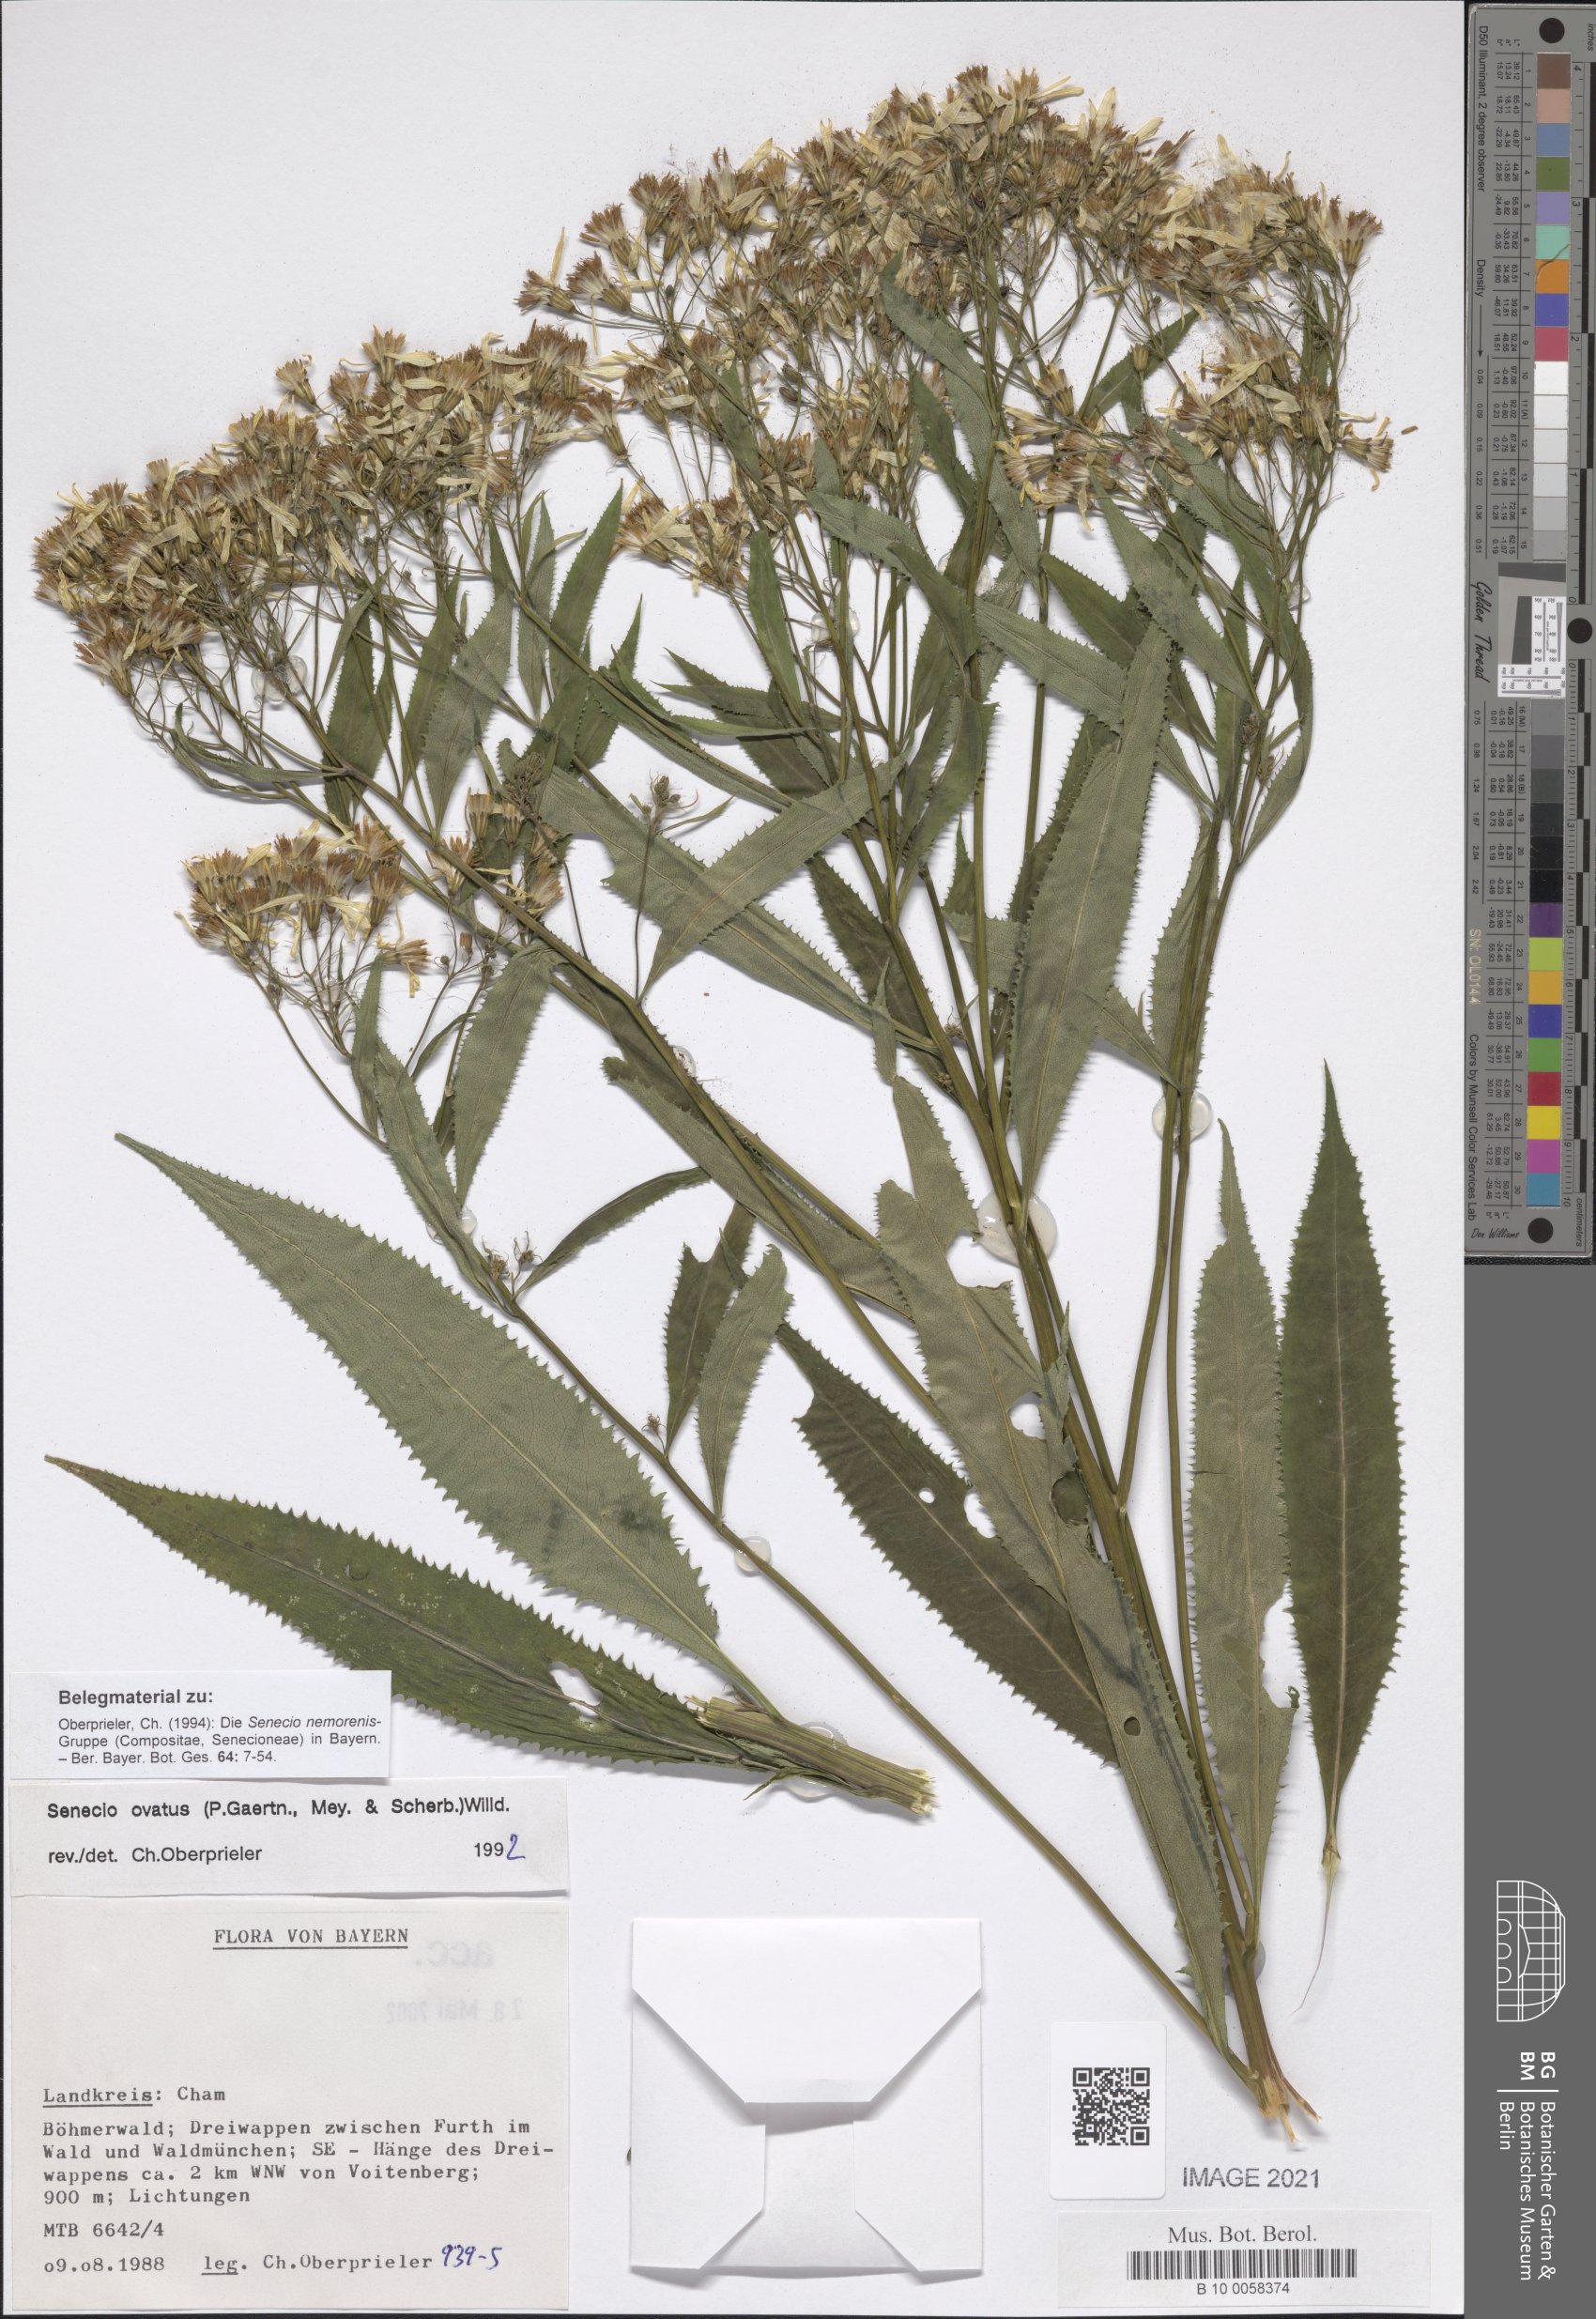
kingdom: Plantae
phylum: Tracheophyta
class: Magnoliopsida
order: Asterales
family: Asteraceae
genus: Senecio
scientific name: Senecio ovatus
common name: Wood ragwort
